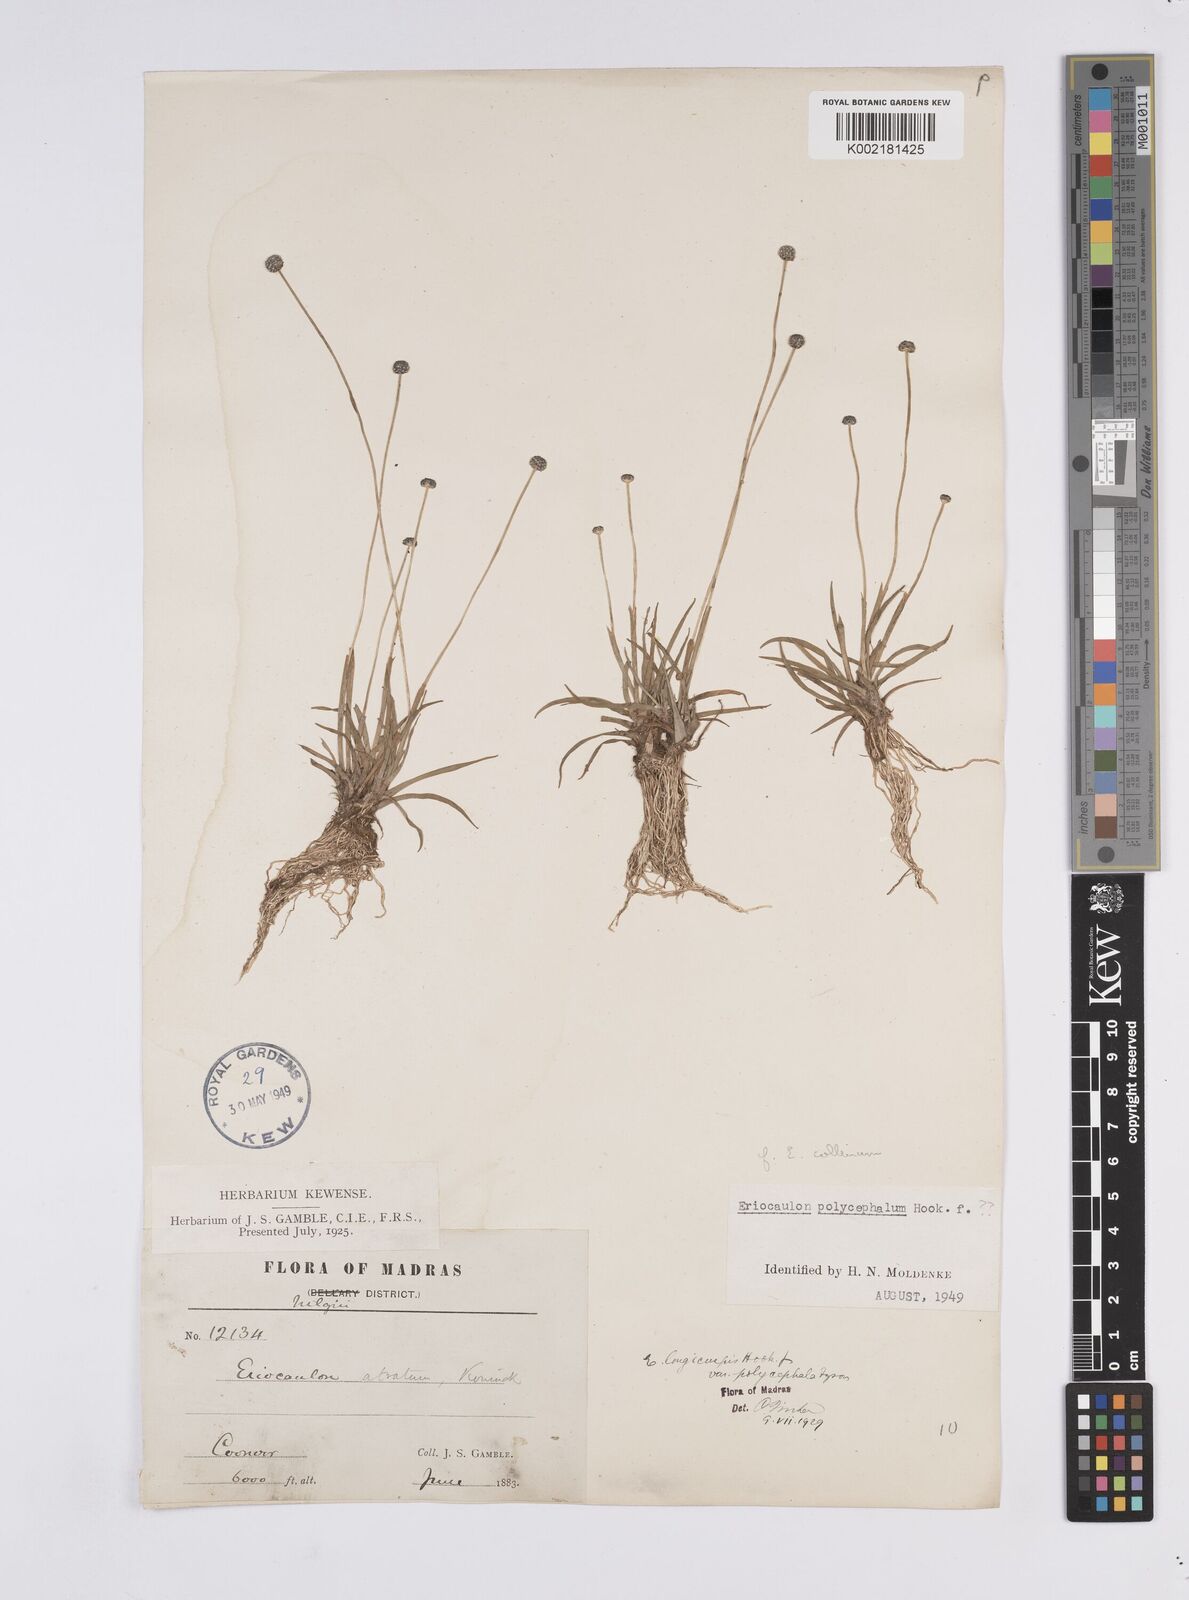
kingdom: Plantae
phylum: Tracheophyta
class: Liliopsida
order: Poales
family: Eriocaulaceae
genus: Eriocaulon
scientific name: Eriocaulon odoratum
